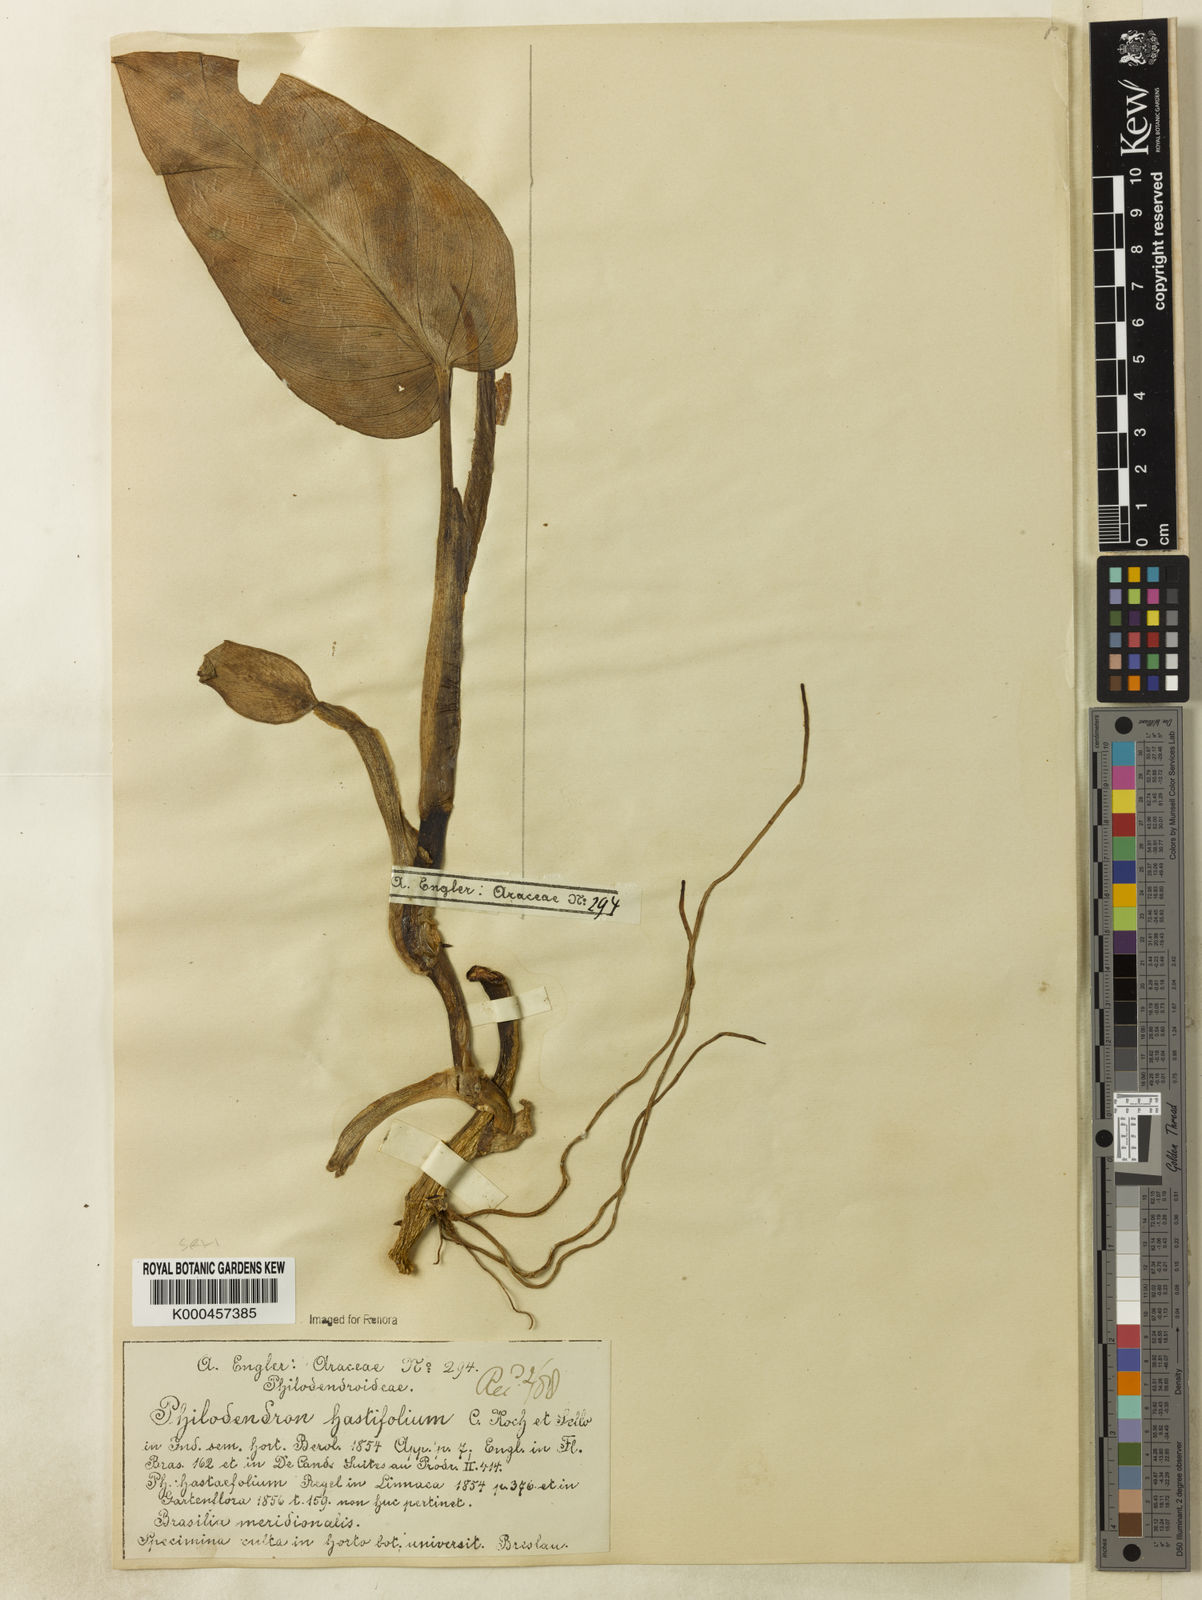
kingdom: Plantae
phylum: Tracheophyta
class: Liliopsida
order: Alismatales
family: Araceae
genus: Philodendron
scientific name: Philodendron hastatum
